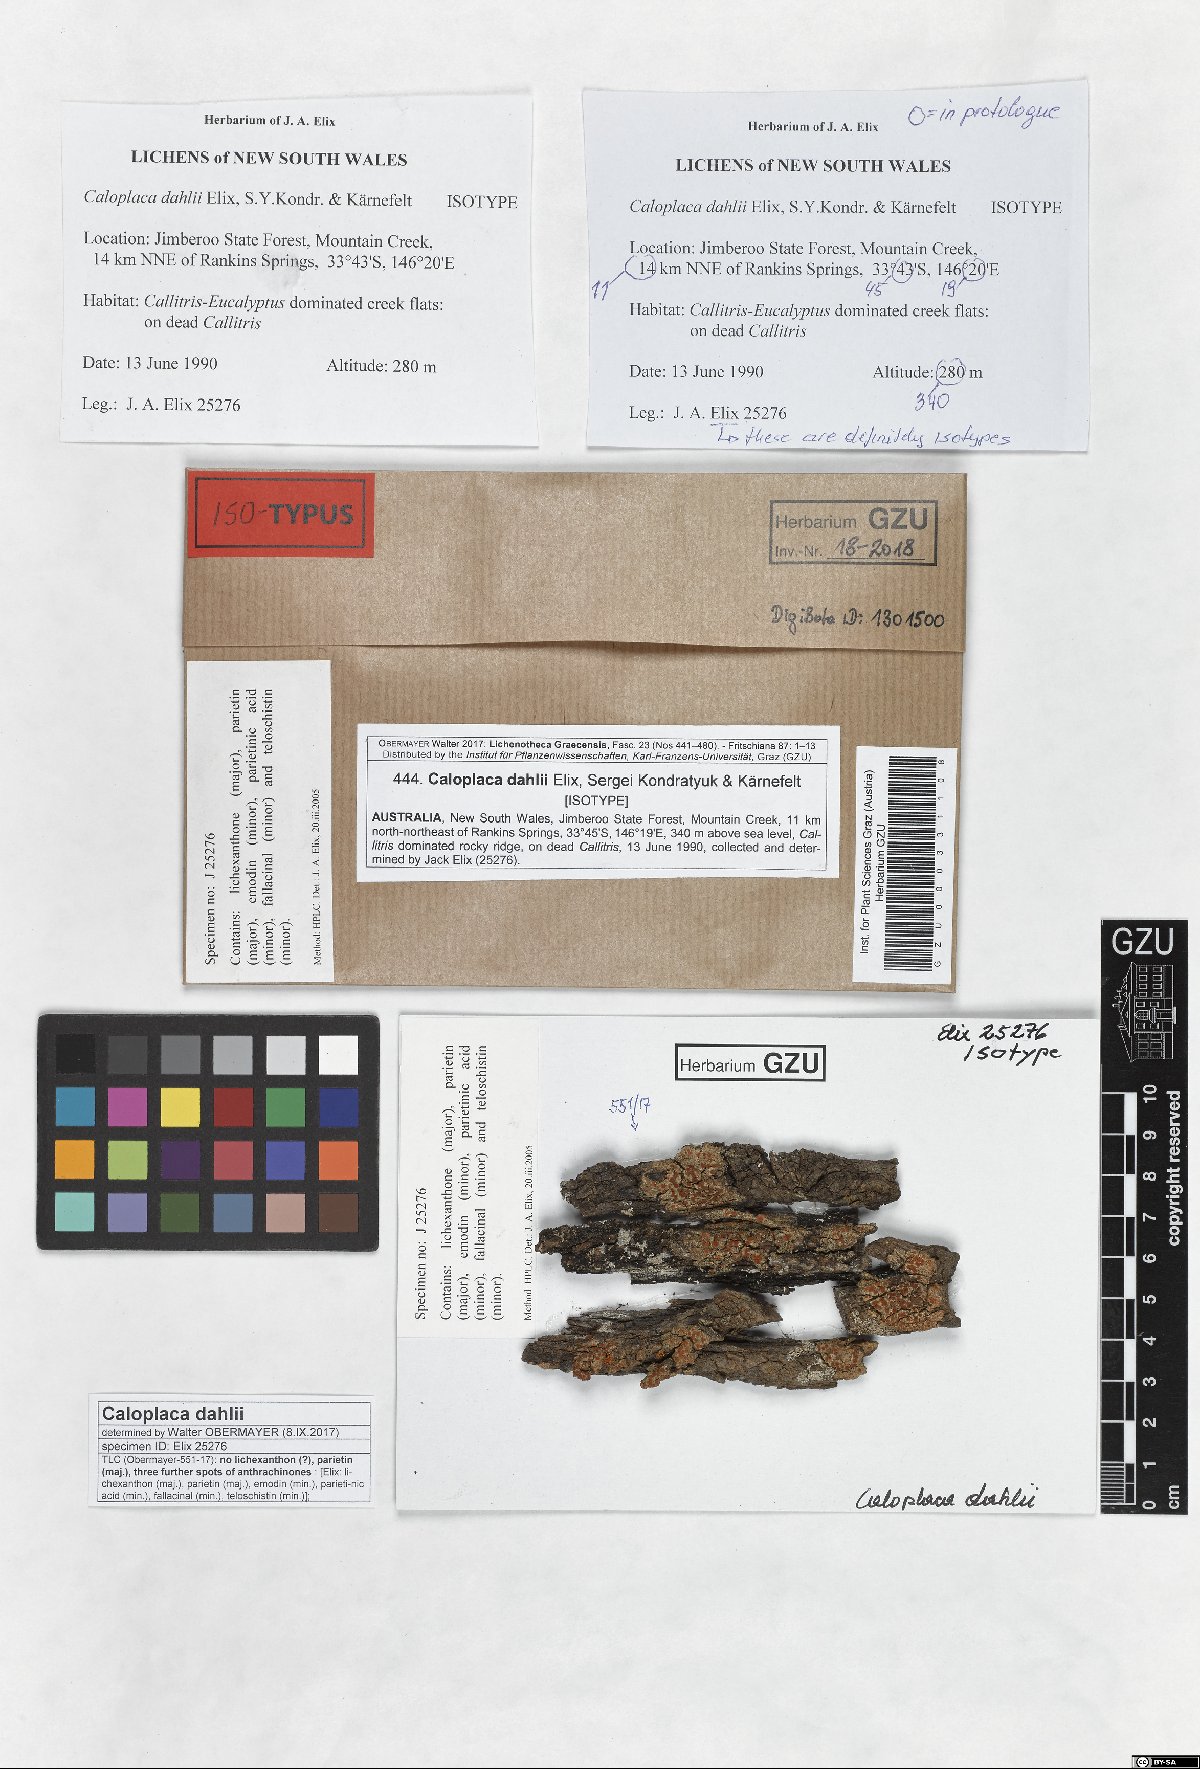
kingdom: Fungi
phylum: Ascomycota
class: Lecanoromycetes
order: Teloschistales
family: Teloschistaceae
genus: Eilifdahlia
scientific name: Eilifdahlia dahlii
